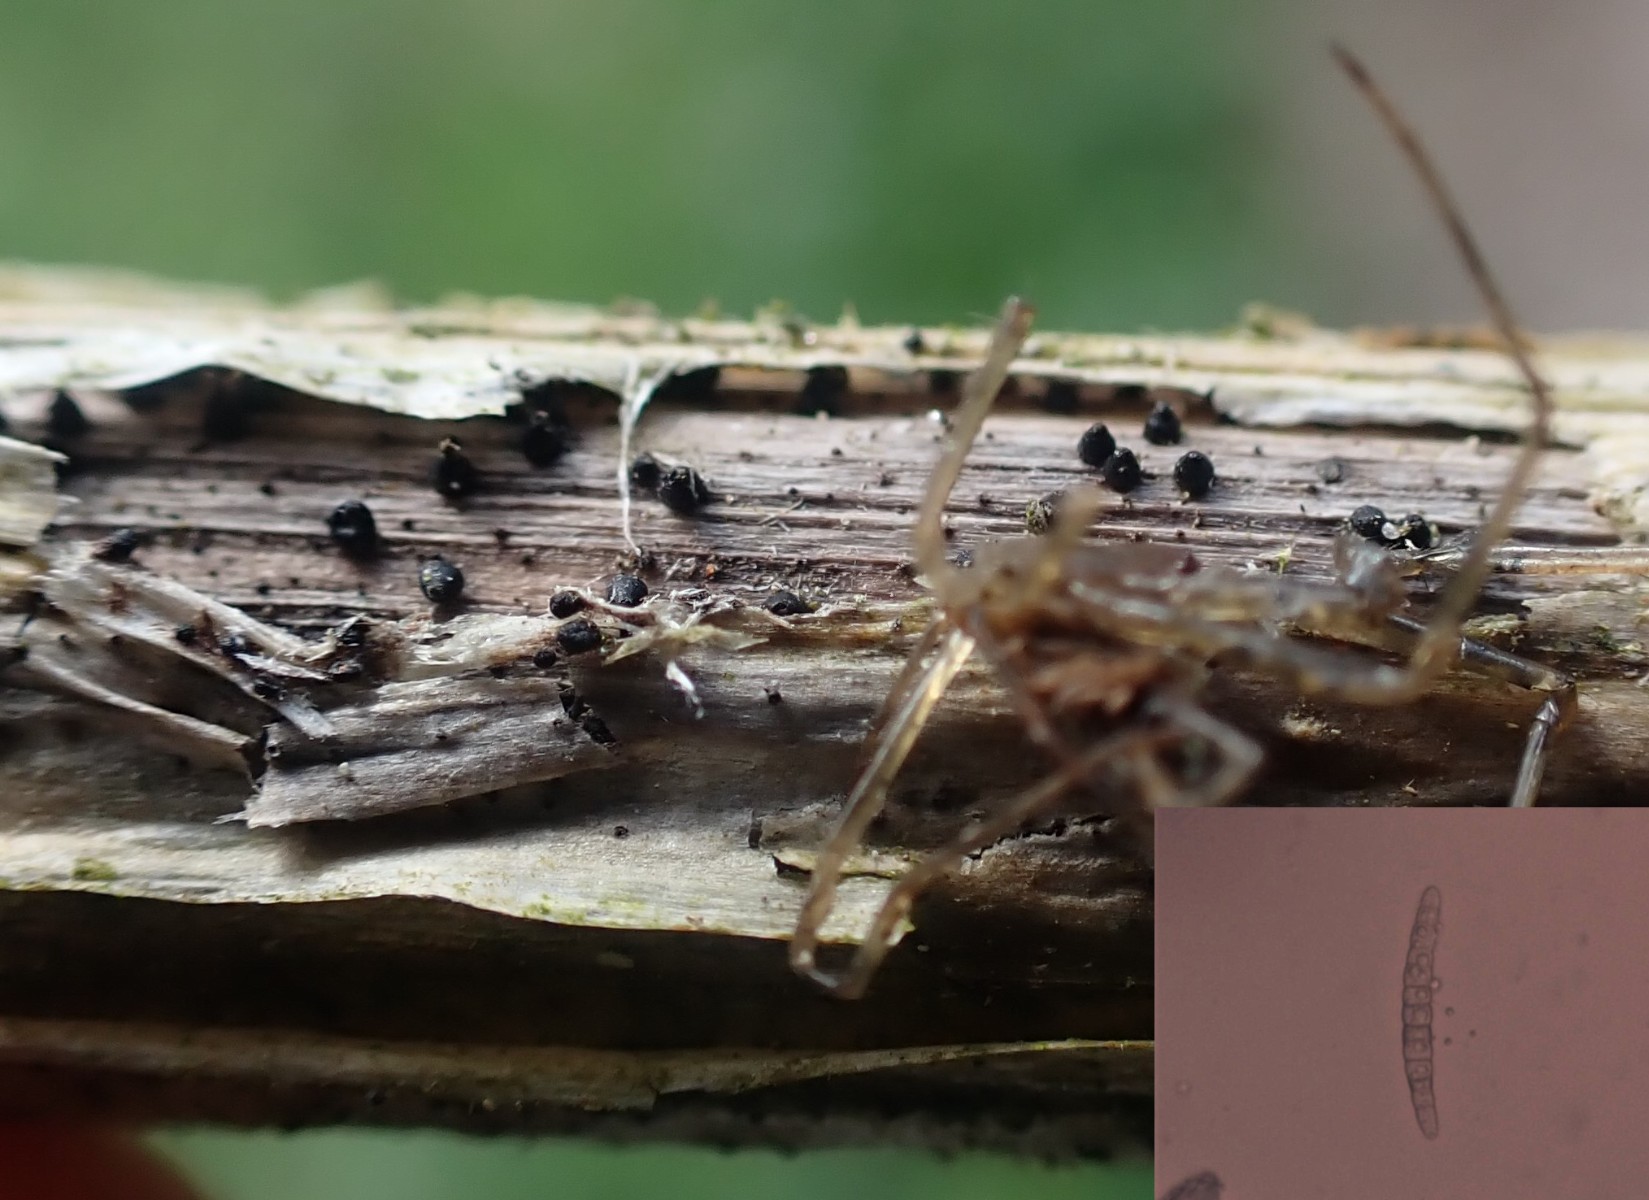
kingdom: Fungi
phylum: Ascomycota
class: Dothideomycetes
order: Pleosporales
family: Leptosphaeriaceae
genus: Leptosphaeria
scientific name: Leptosphaeria acuta
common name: spids kulkegle
